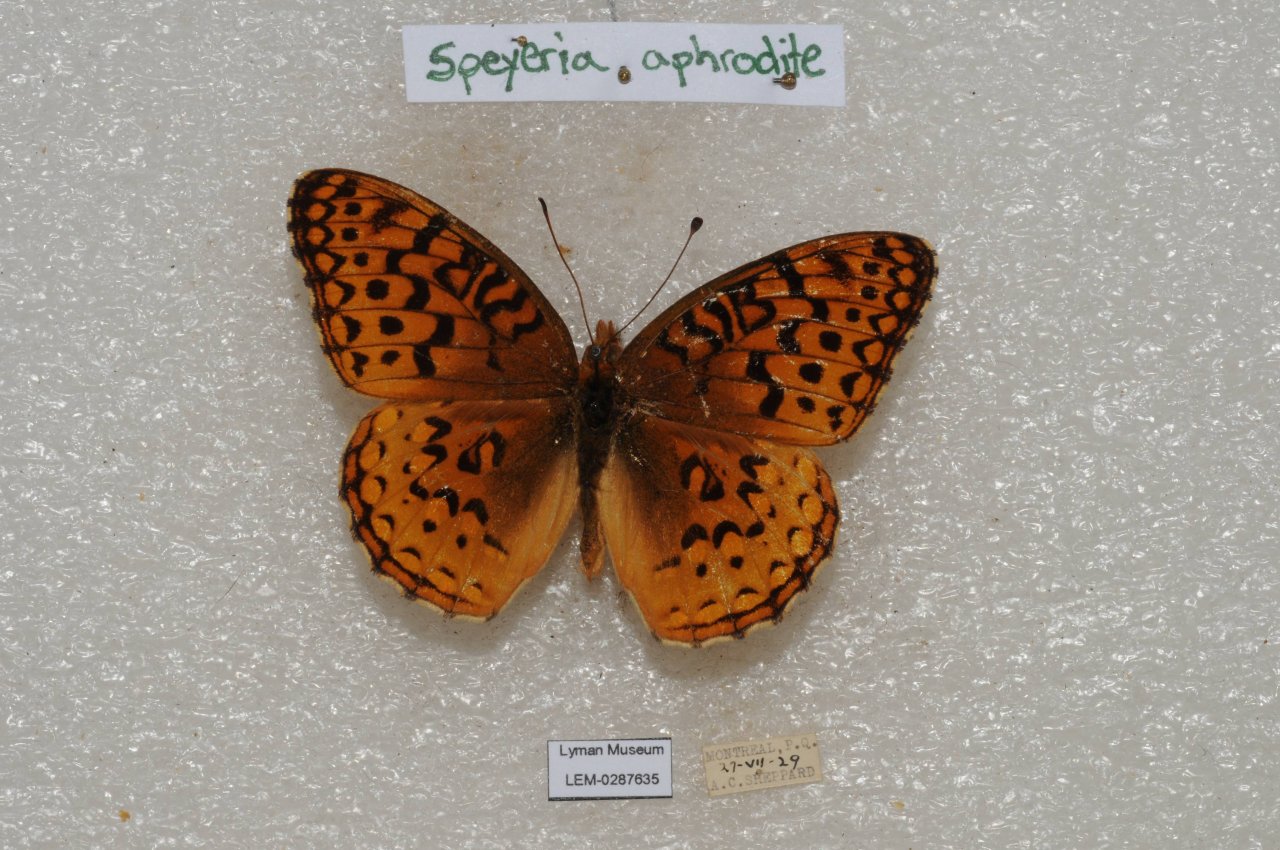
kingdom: Animalia
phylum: Arthropoda
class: Insecta
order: Lepidoptera
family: Nymphalidae
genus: Speyeria
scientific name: Speyeria aphrodite
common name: Aphrodite Fritillary
